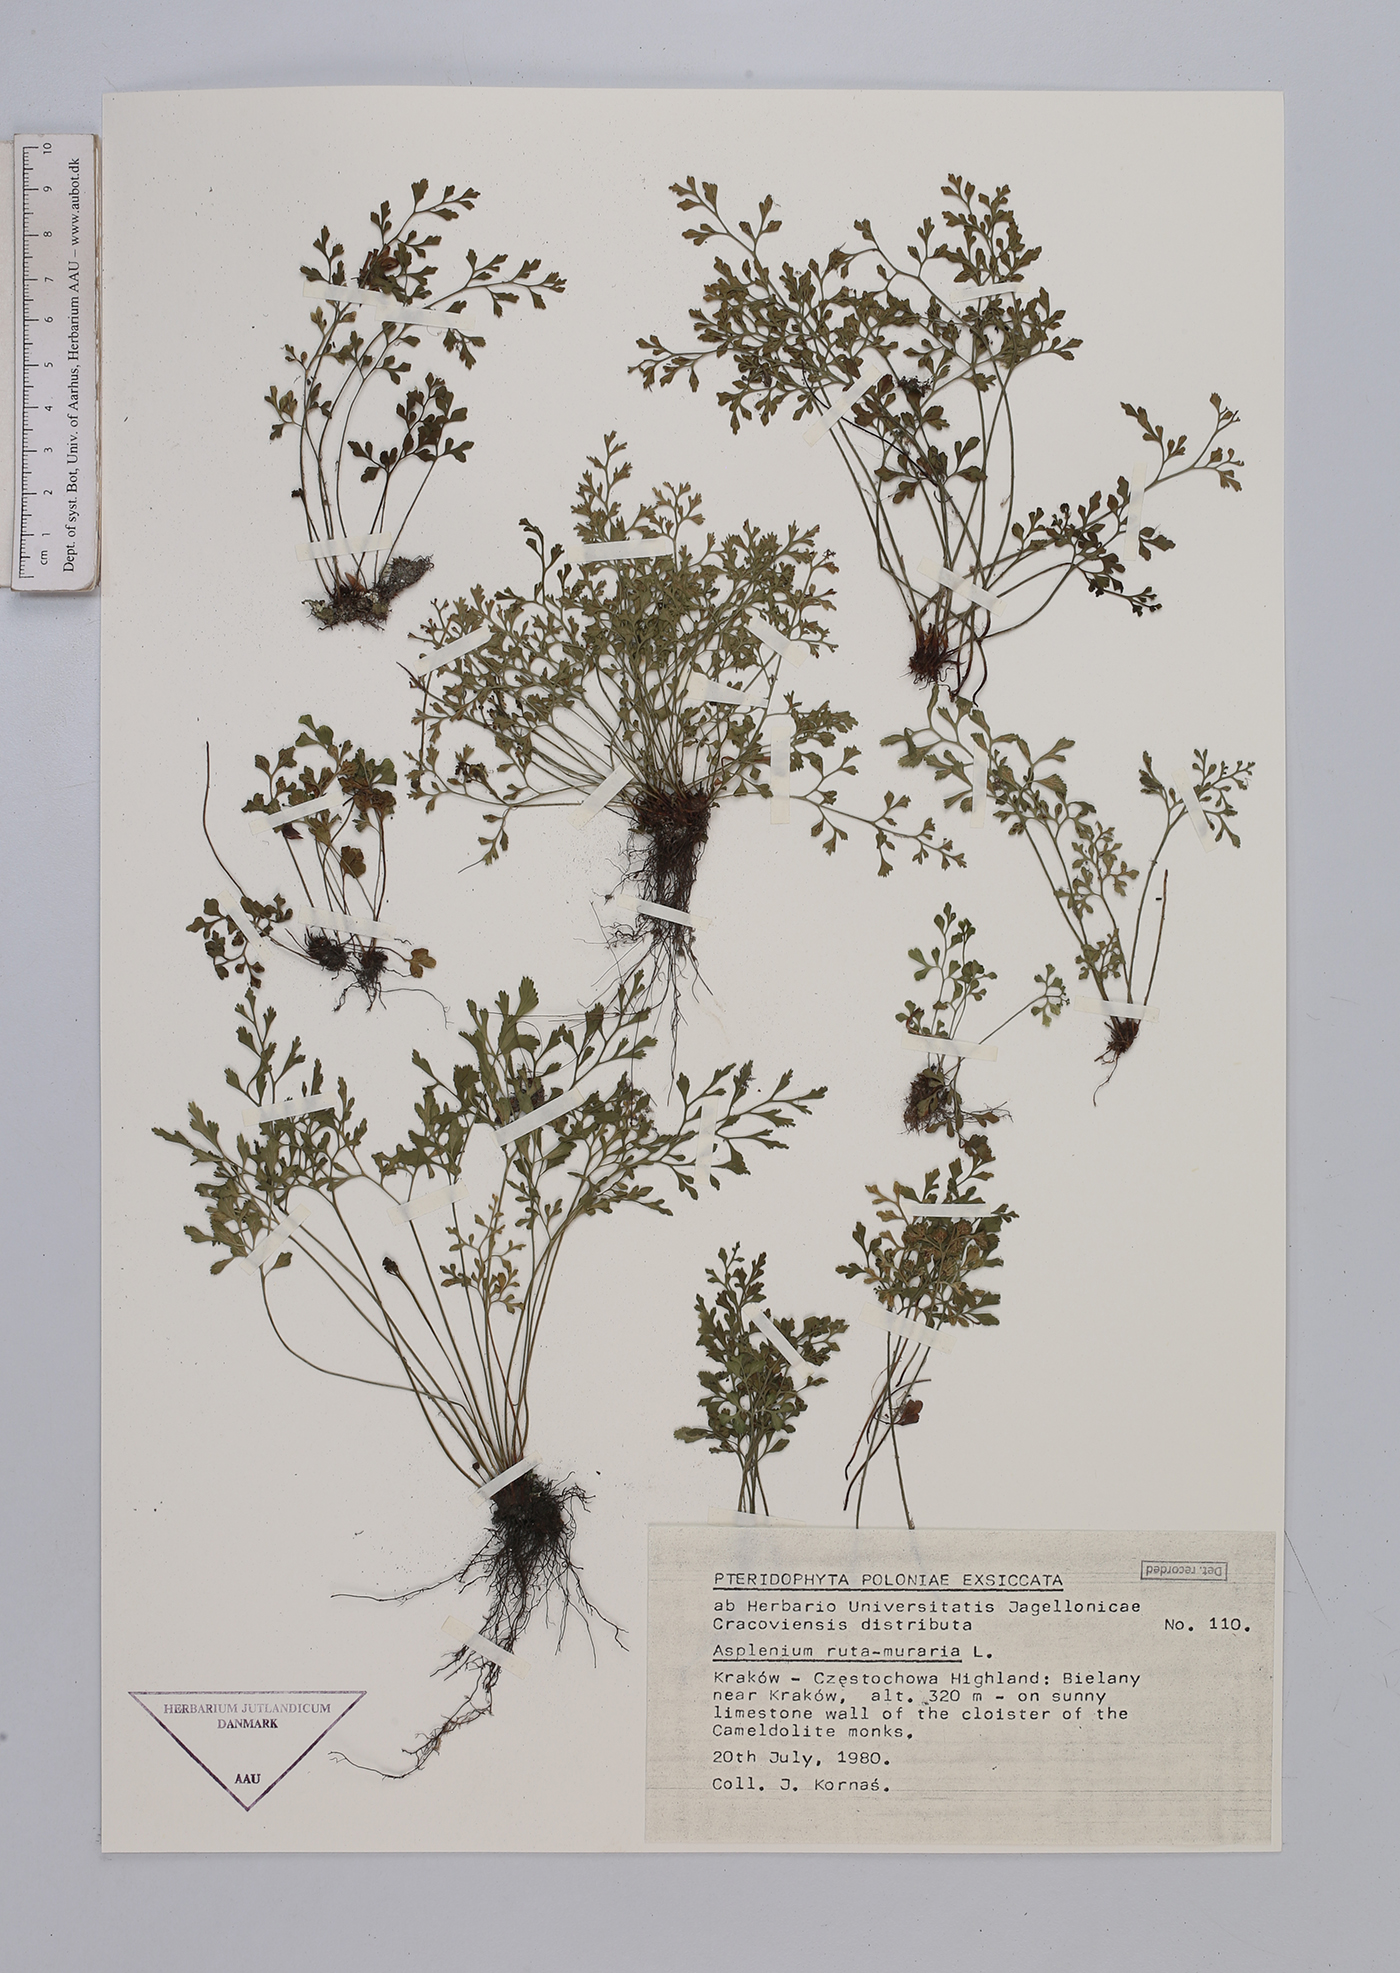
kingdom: Plantae
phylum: Tracheophyta
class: Polypodiopsida
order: Polypodiales
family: Aspleniaceae
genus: Asplenium
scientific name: Asplenium ruta-muraria
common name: Wall-rue
